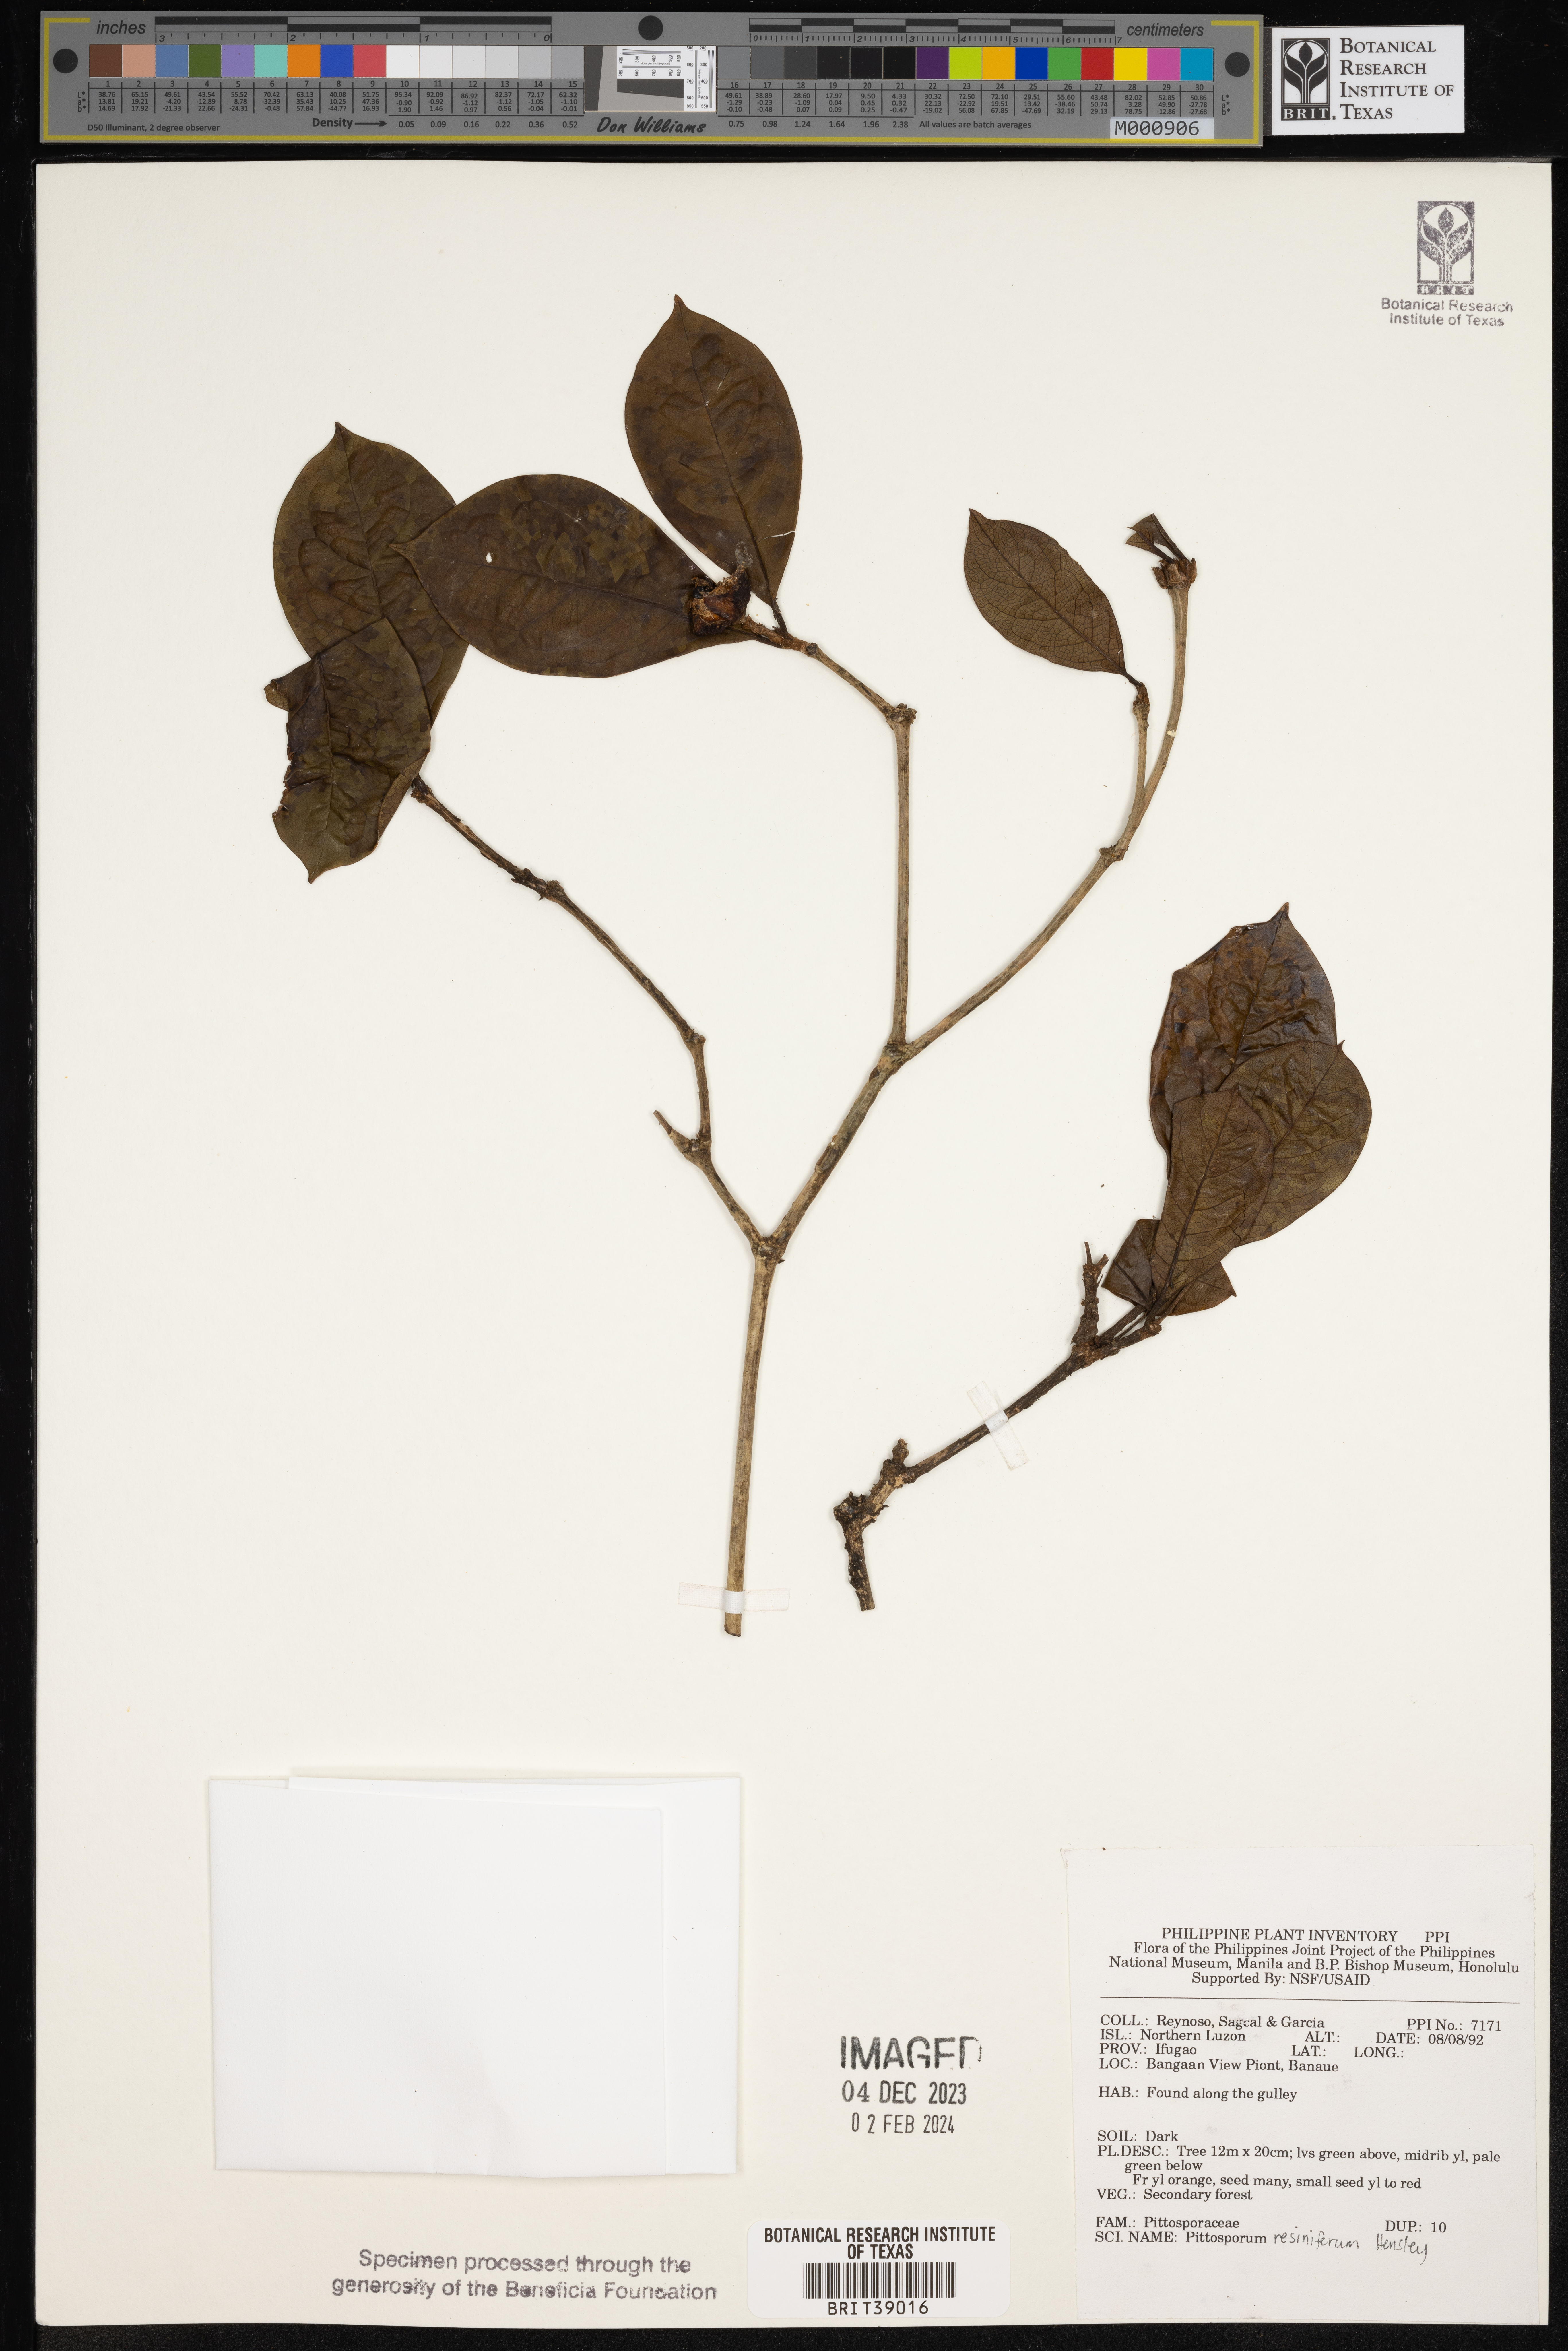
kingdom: Plantae
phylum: Tracheophyta
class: Magnoliopsida
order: Apiales
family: Pittosporaceae
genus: Pittosporum
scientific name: Pittosporum resiniferum
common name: Petroleum-nut
